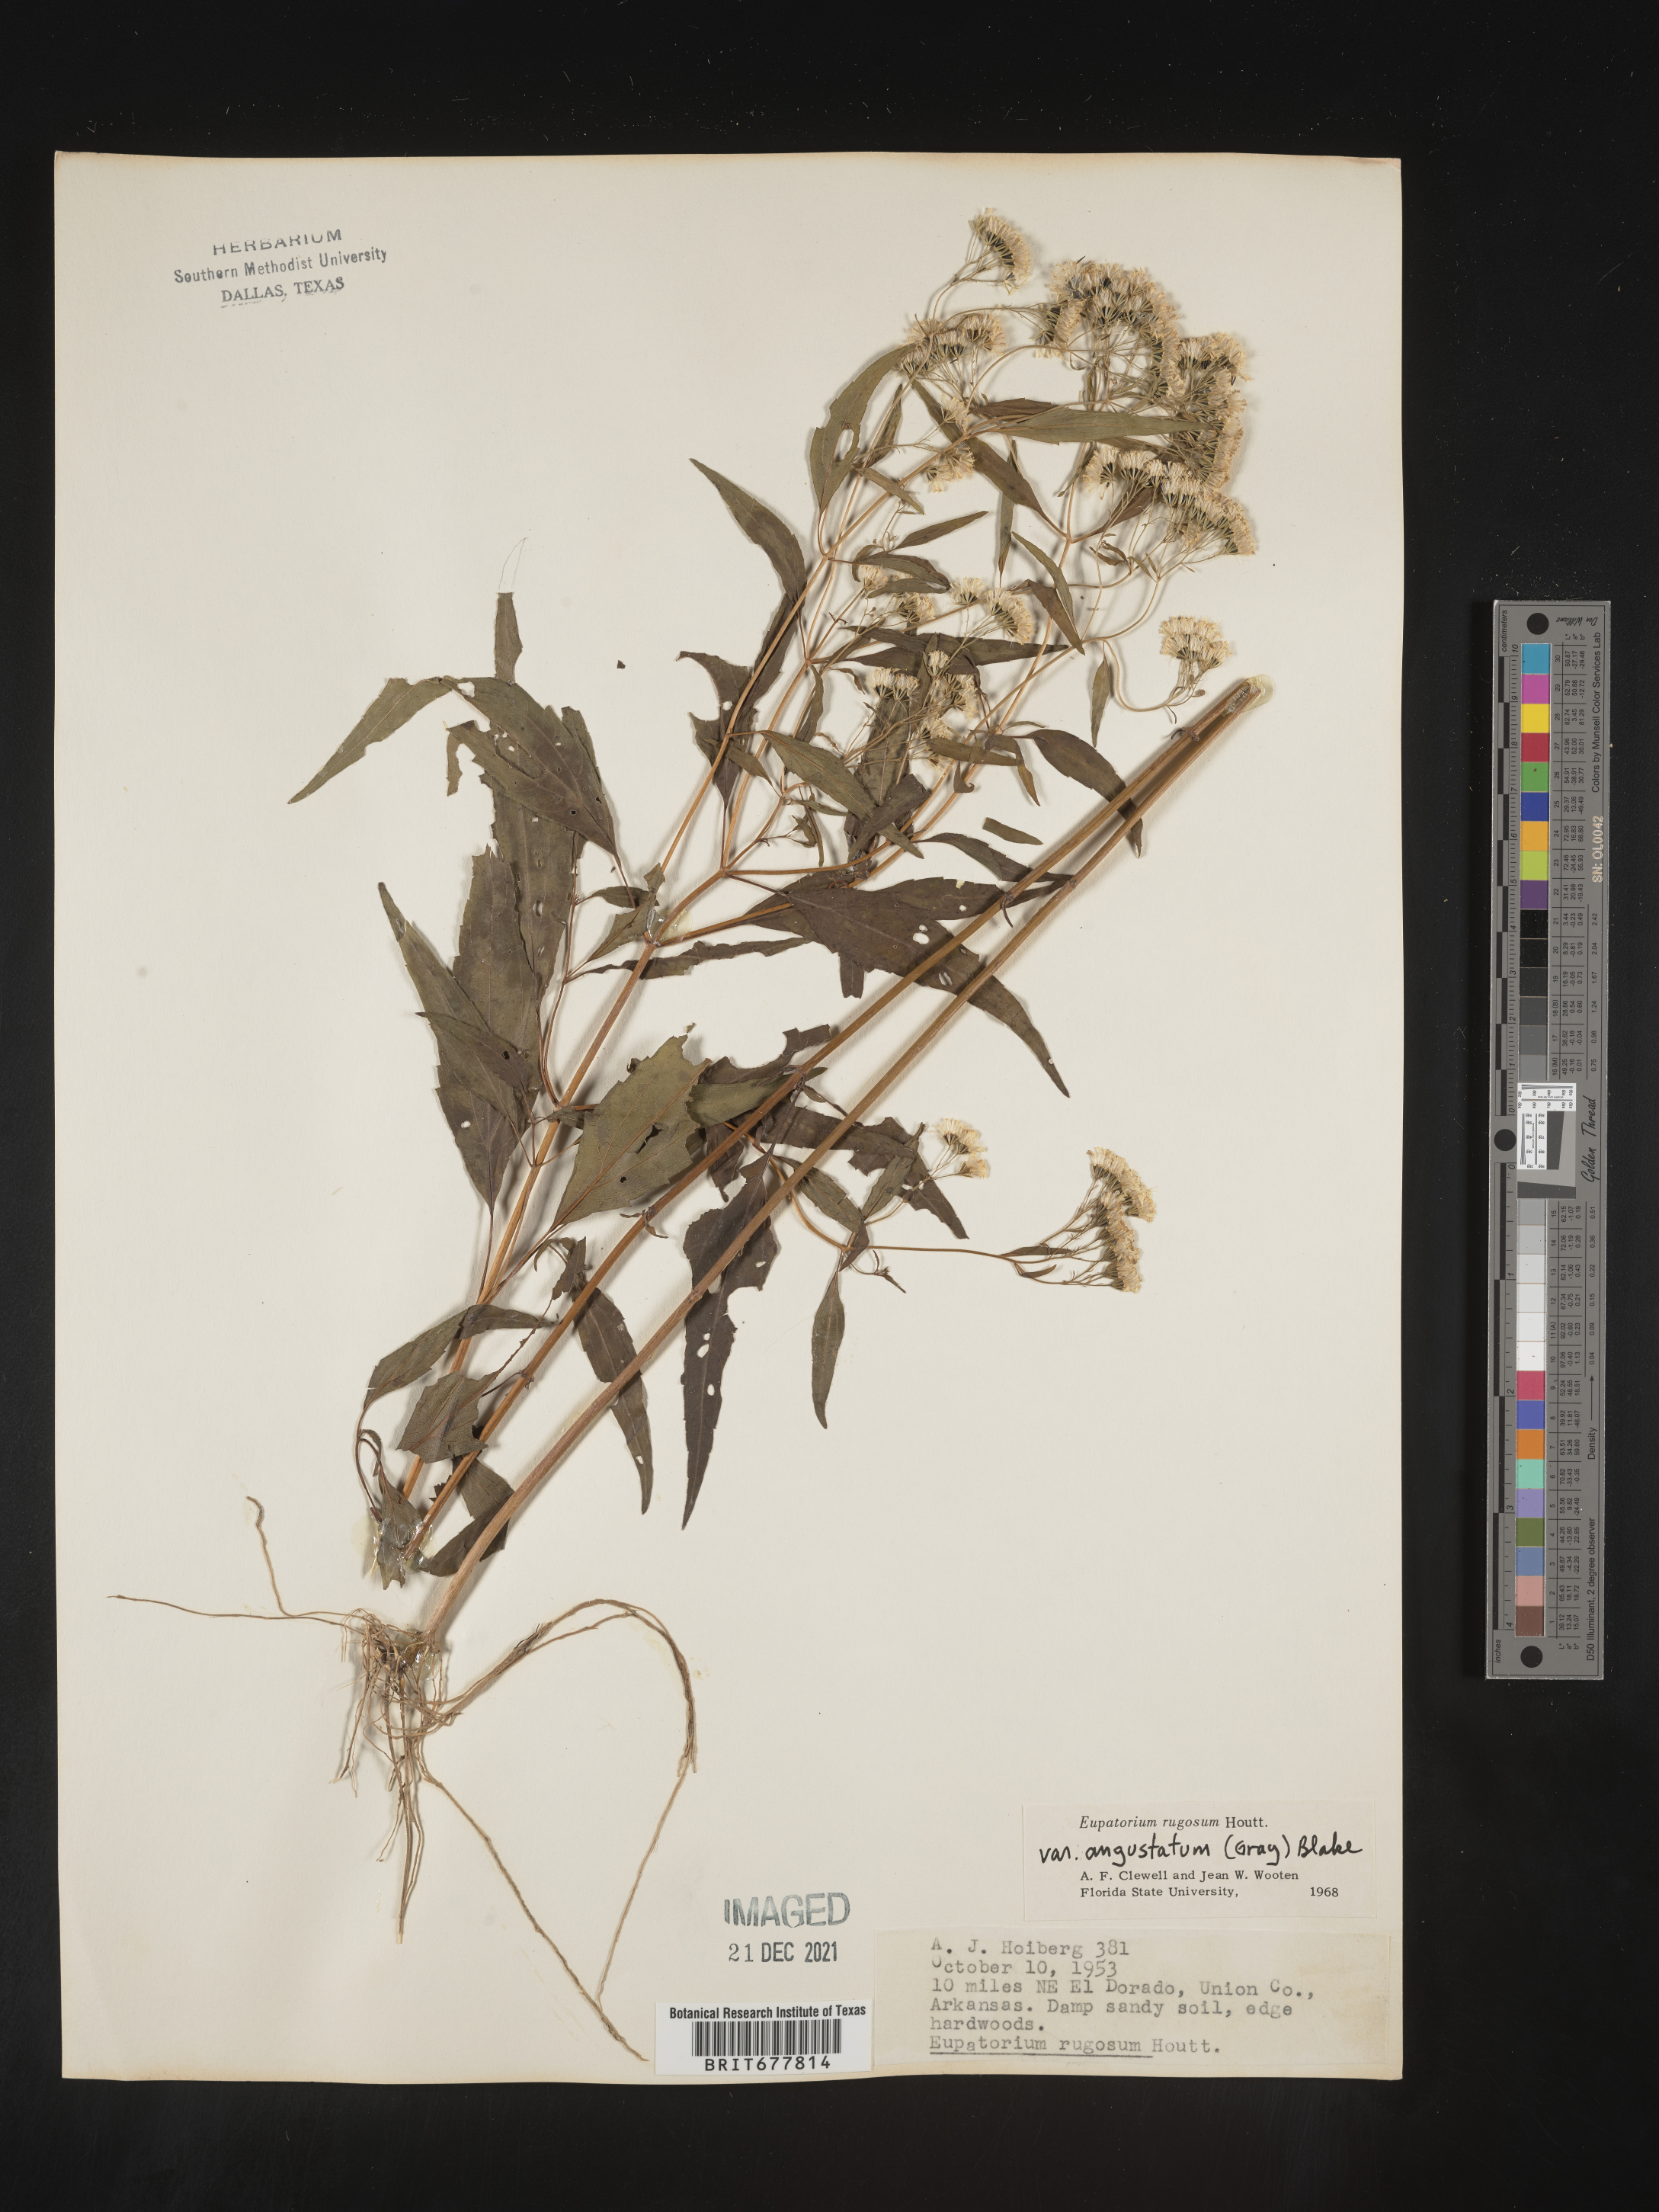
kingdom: Plantae
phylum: Tracheophyta
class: Magnoliopsida
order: Asterales
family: Asteraceae
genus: Ageratina
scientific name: Ageratina altissima
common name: White snakeroot
